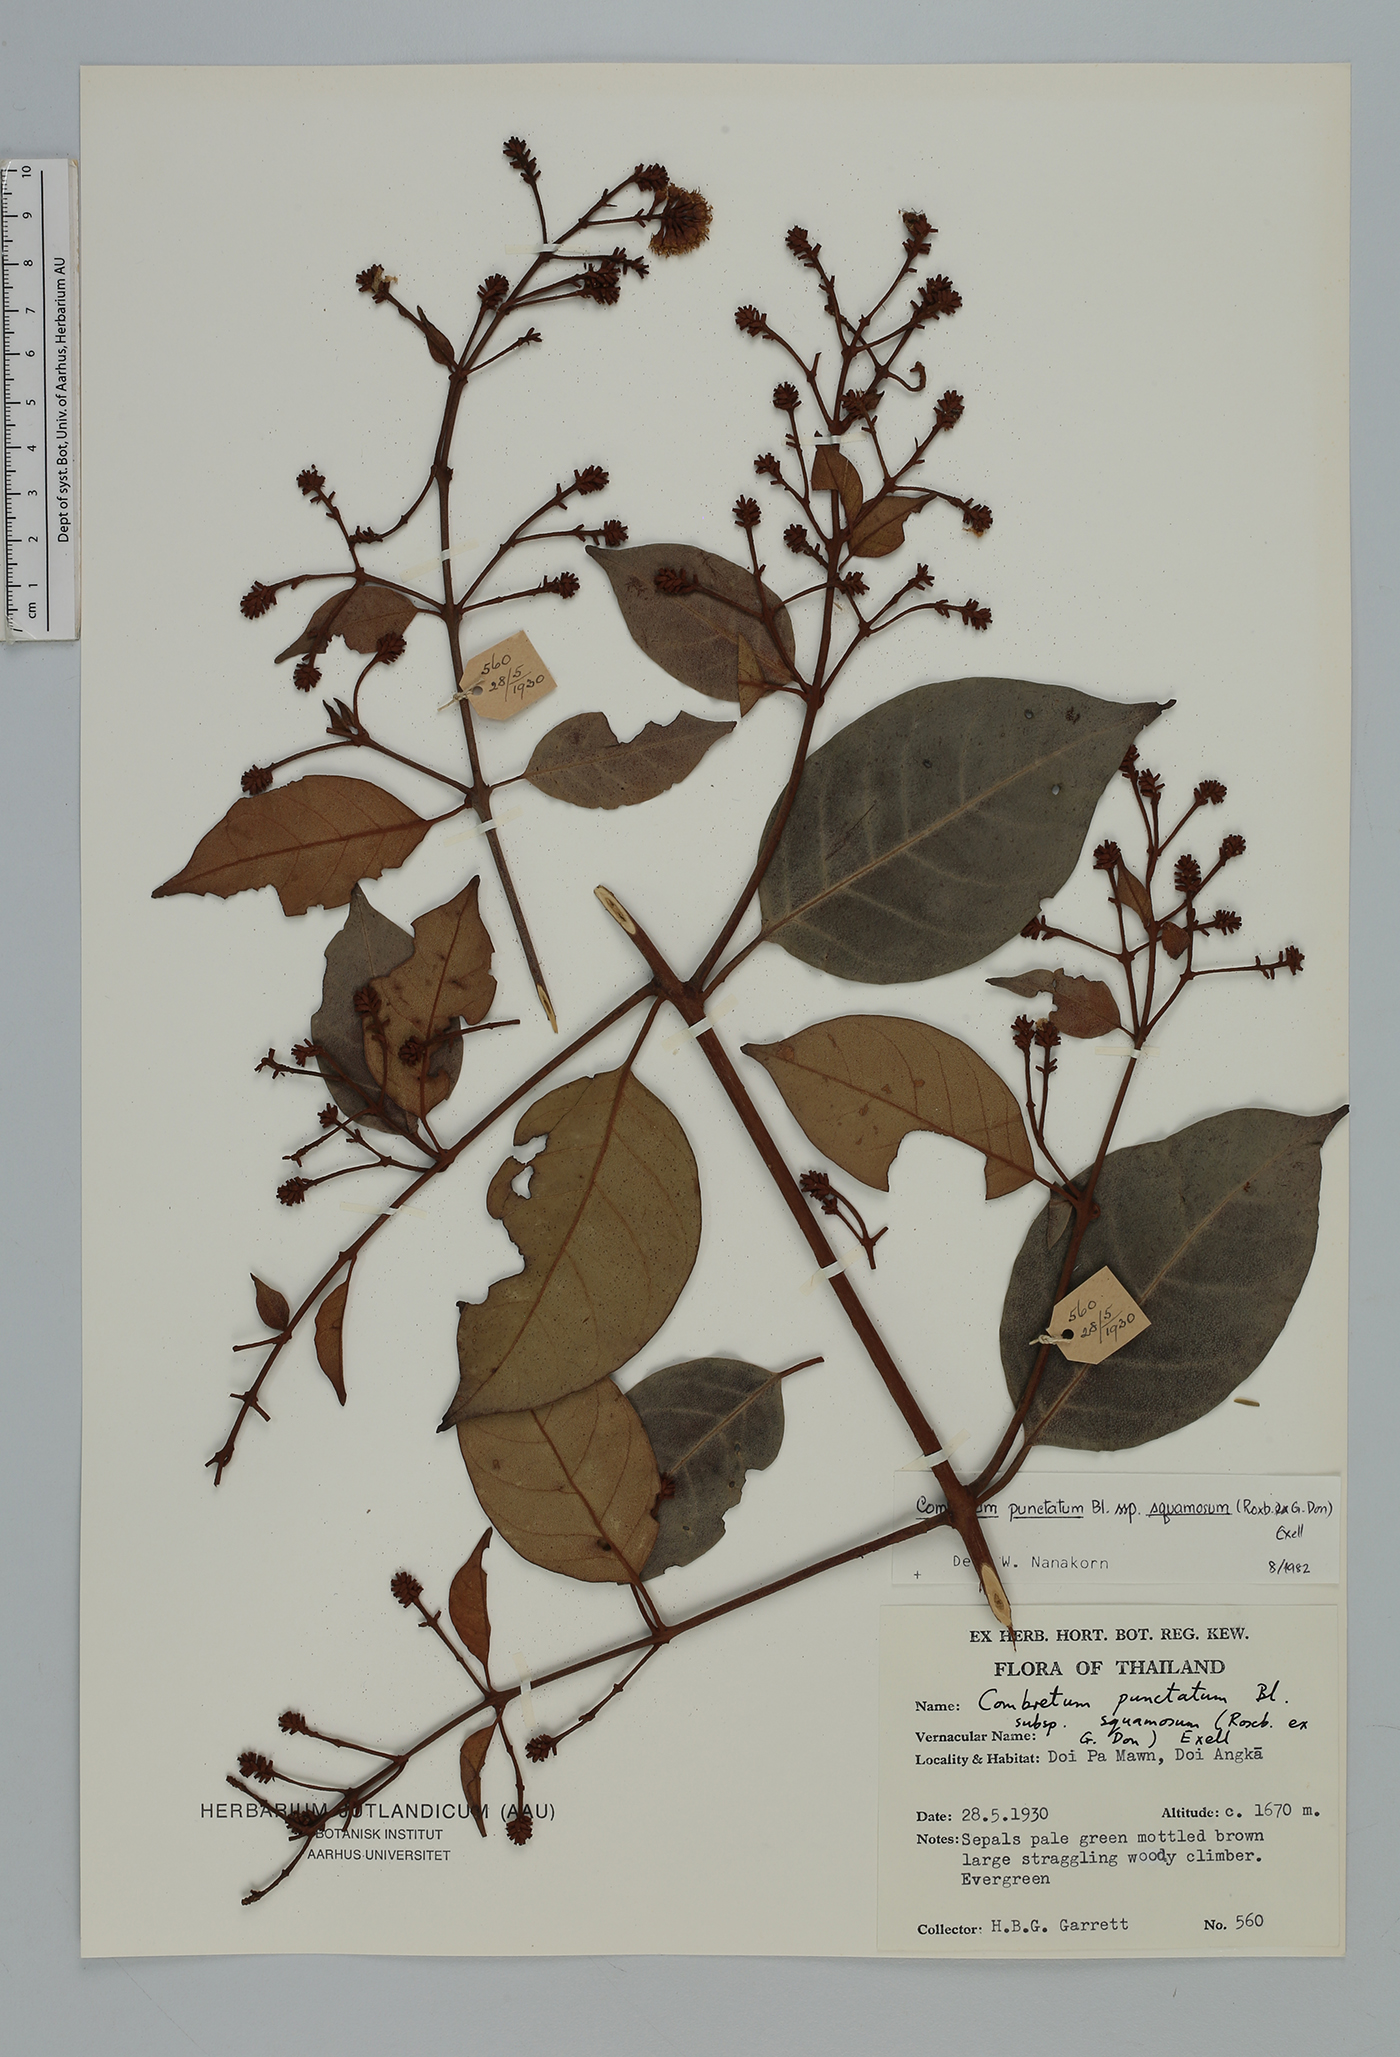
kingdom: Plantae
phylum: Tracheophyta
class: Magnoliopsida
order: Myrtales
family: Combretaceae
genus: Combretum
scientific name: Combretum punctatum
